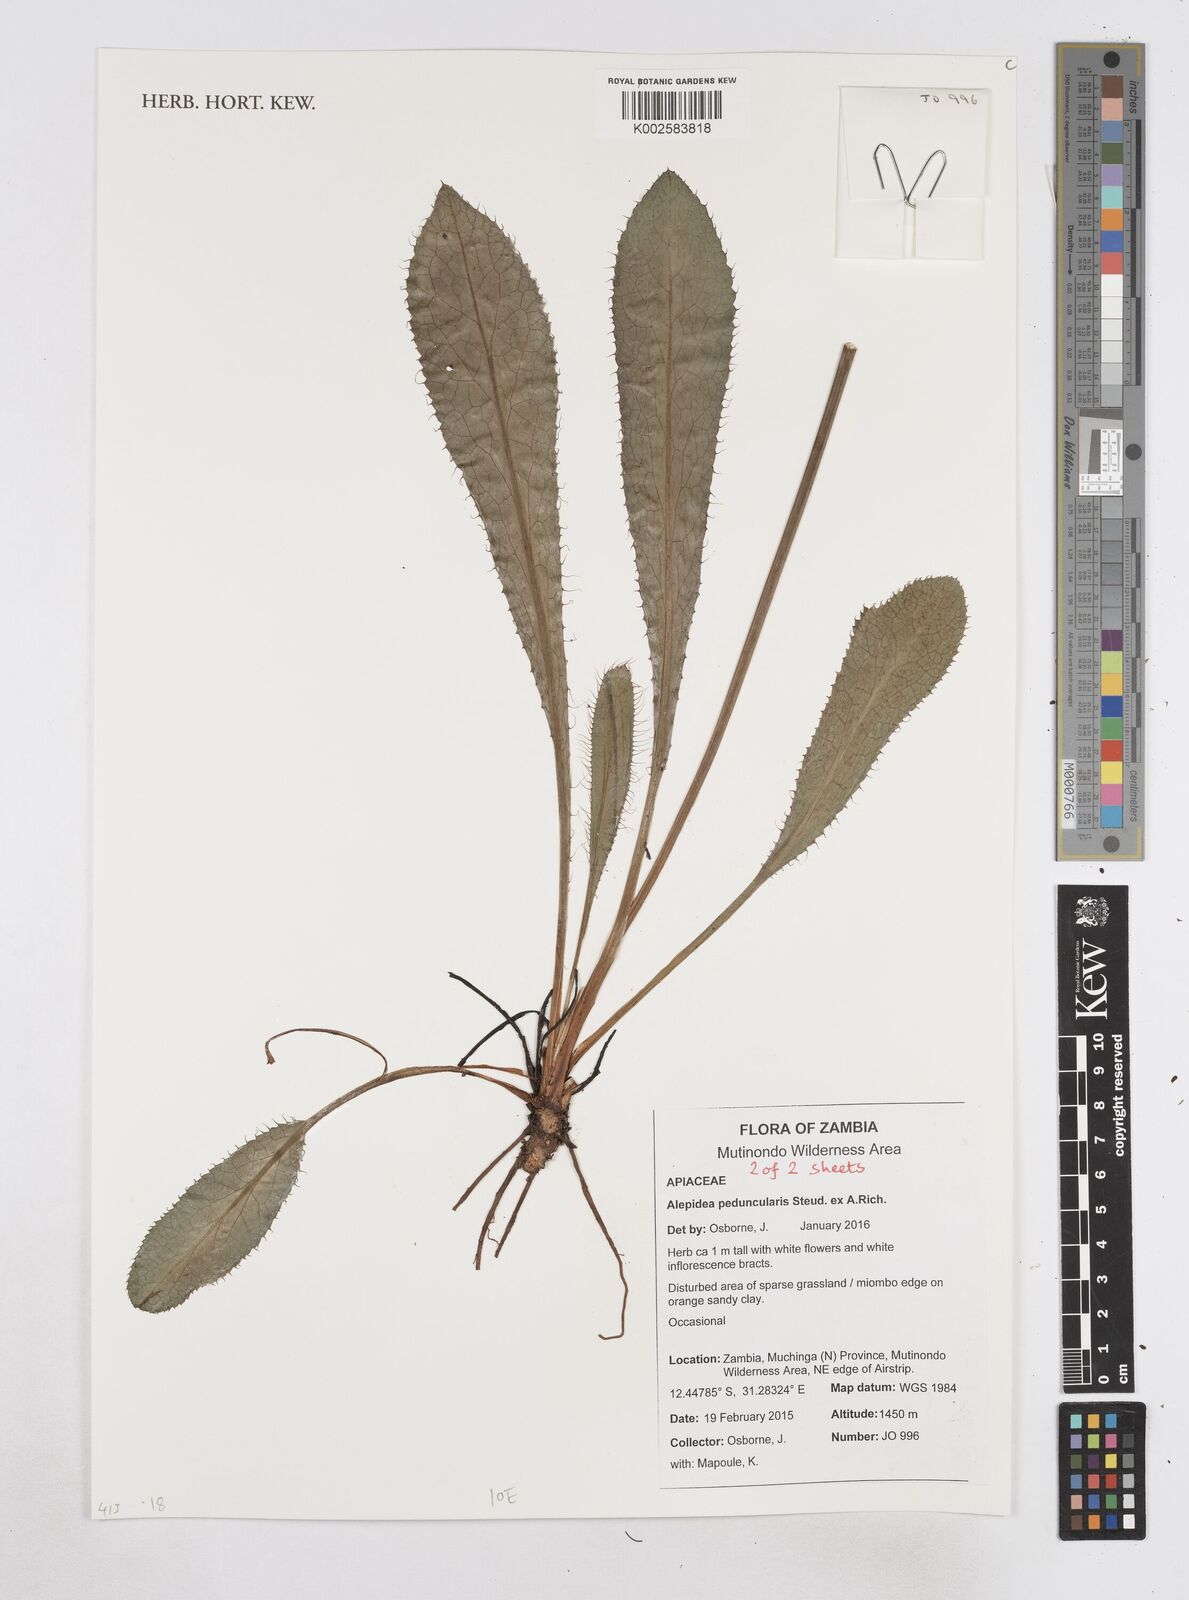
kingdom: Plantae
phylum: Tracheophyta
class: Magnoliopsida
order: Apiales
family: Apiaceae
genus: Alepidea
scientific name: Alepidea peduncularis
